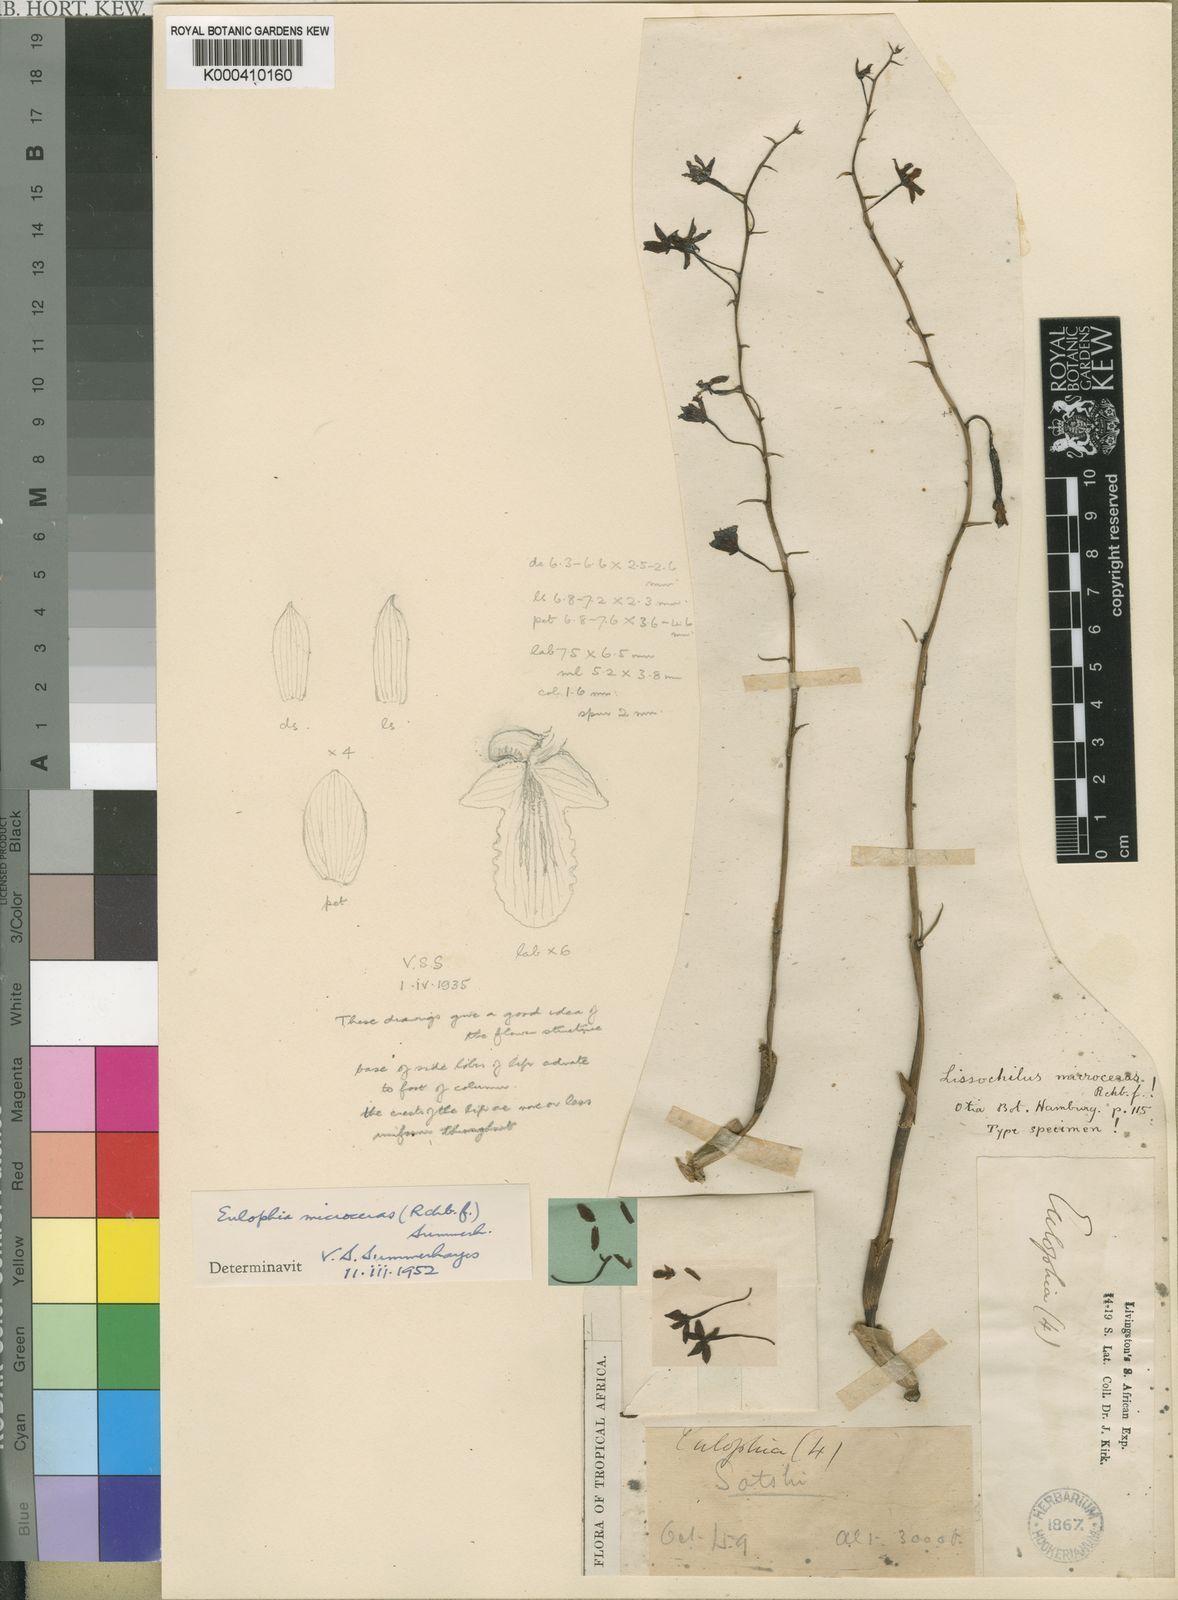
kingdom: Plantae
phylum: Tracheophyta
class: Liliopsida
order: Asparagales
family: Orchidaceae
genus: Eulophia
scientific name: Eulophia pyrophila
